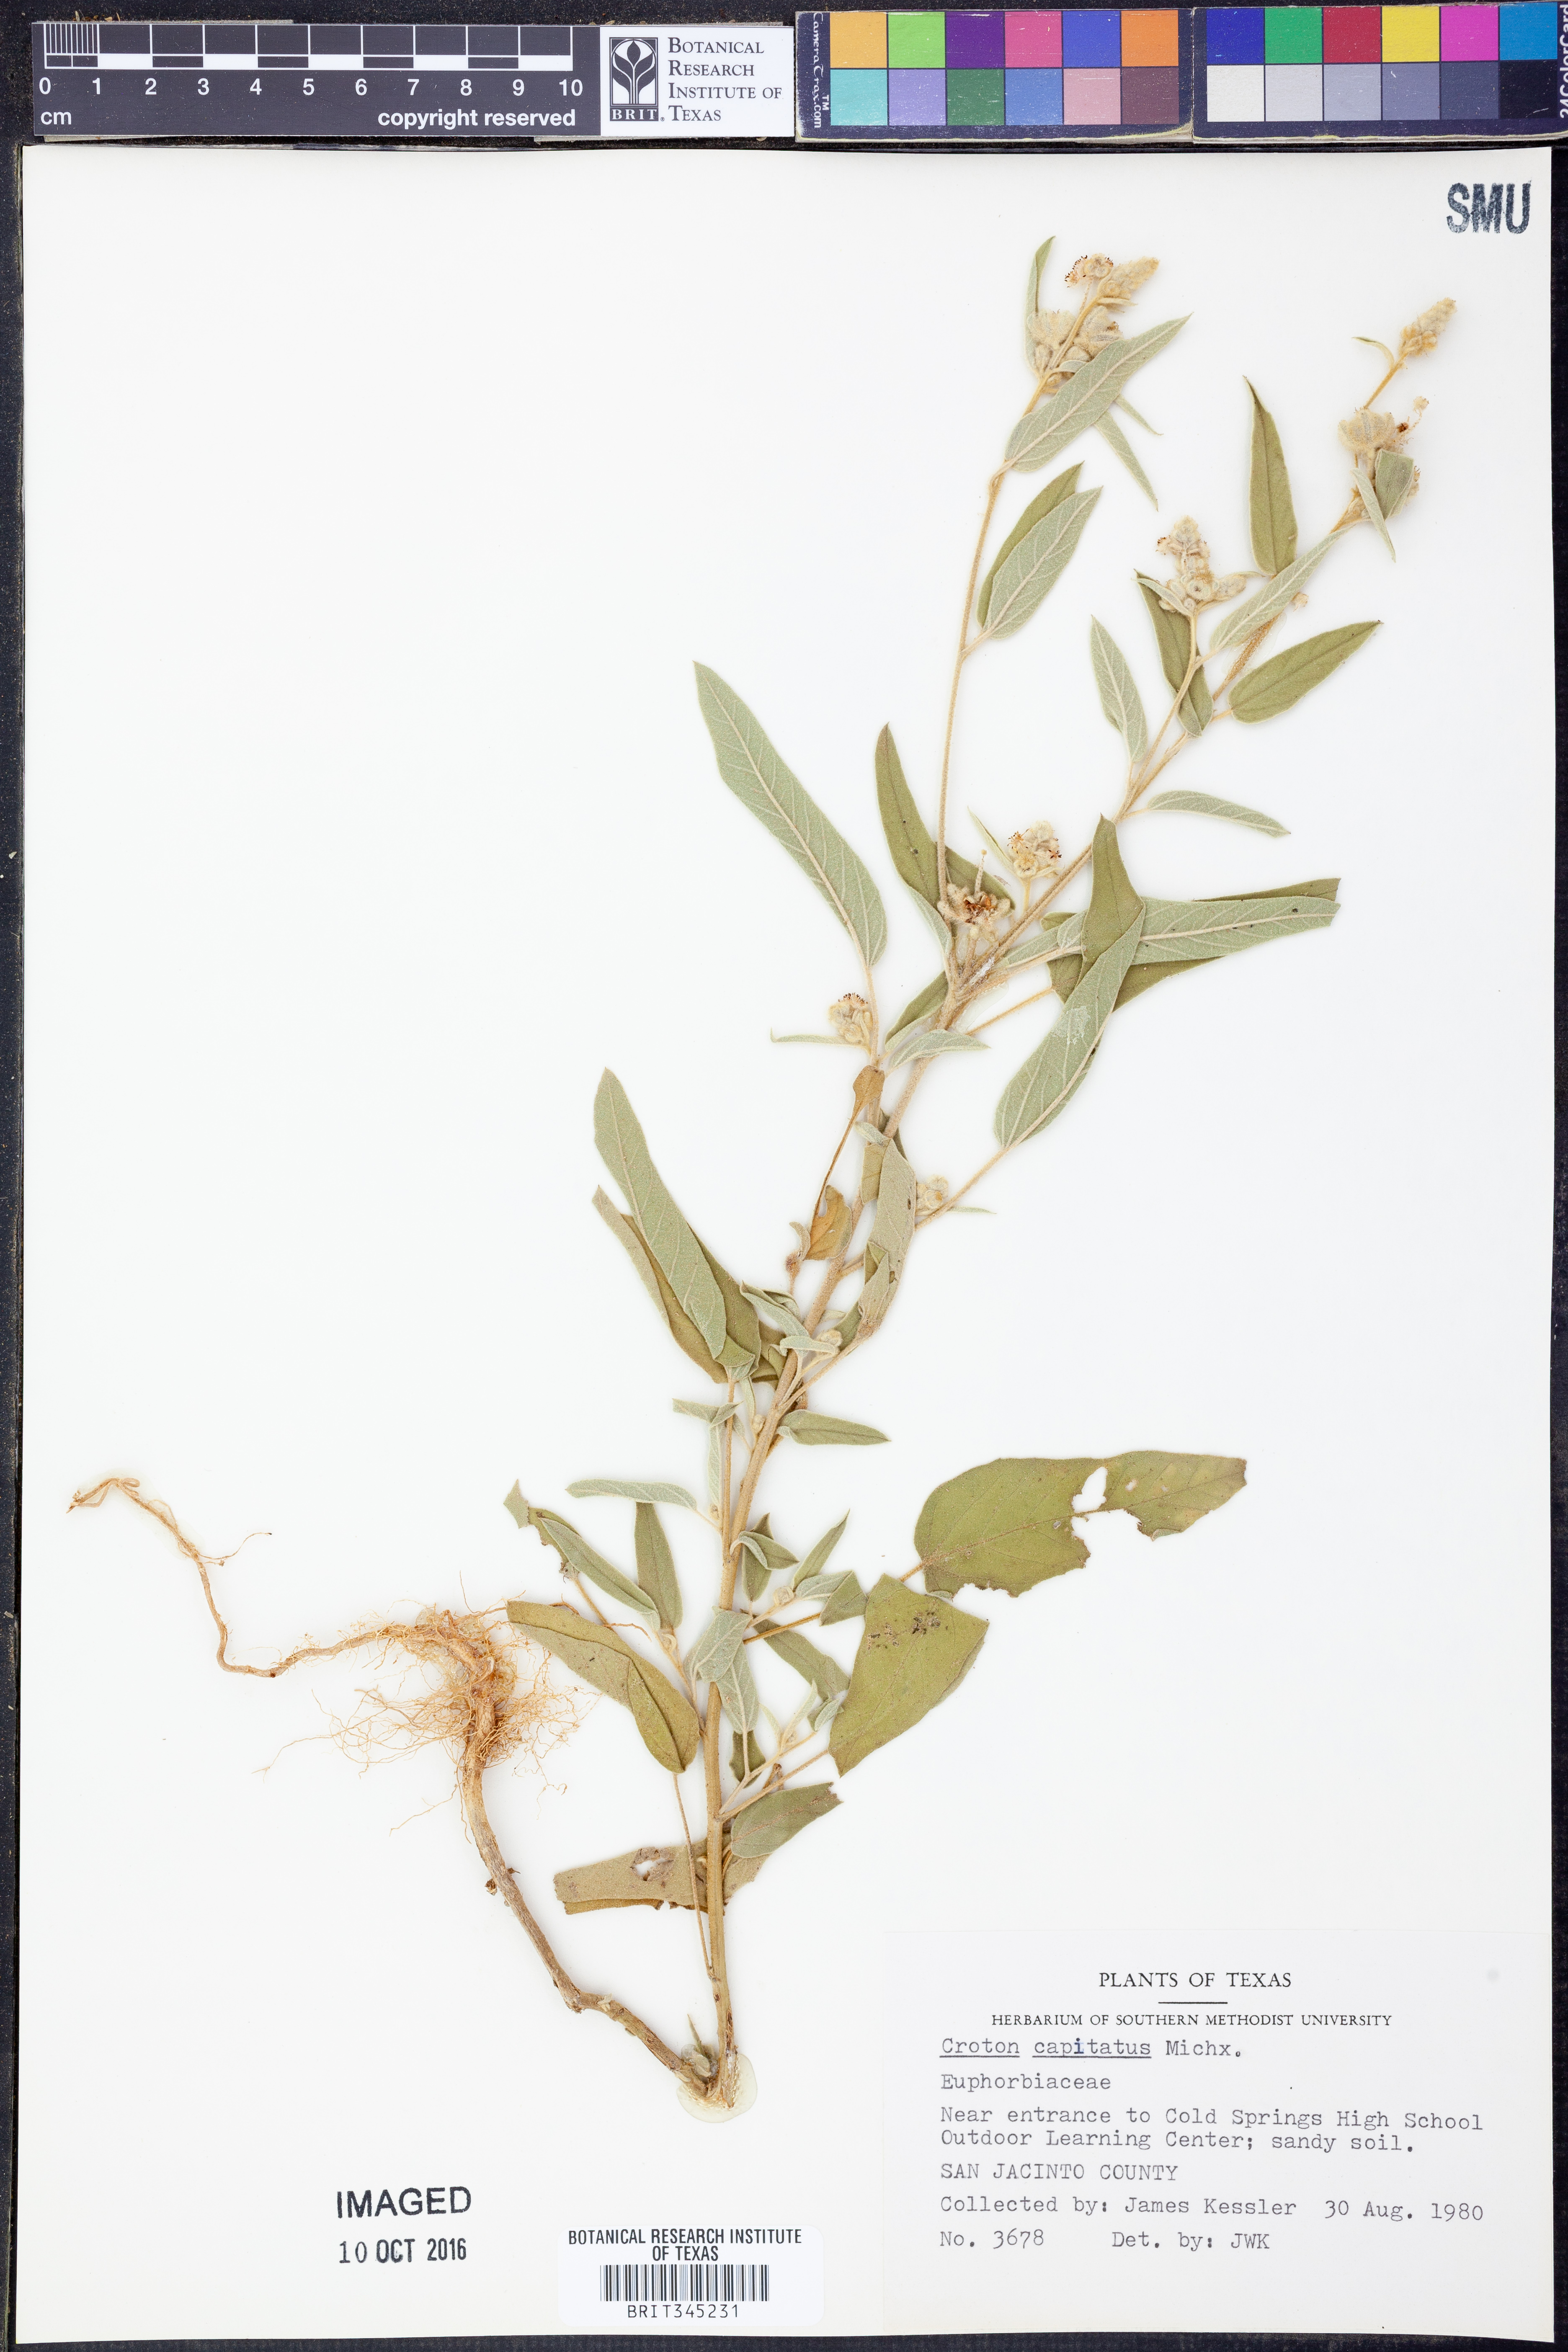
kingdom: Plantae
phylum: Tracheophyta
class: Magnoliopsida
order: Malpighiales
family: Euphorbiaceae
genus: Croton
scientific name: Croton capitatus
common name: Woolly croton
